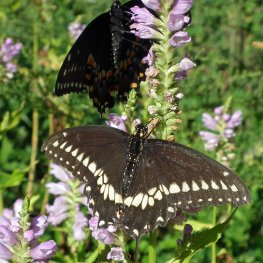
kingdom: Animalia
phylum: Arthropoda
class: Insecta
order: Lepidoptera
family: Papilionidae
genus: Papilio
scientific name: Papilio polyxenes
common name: Black Swallowtail
